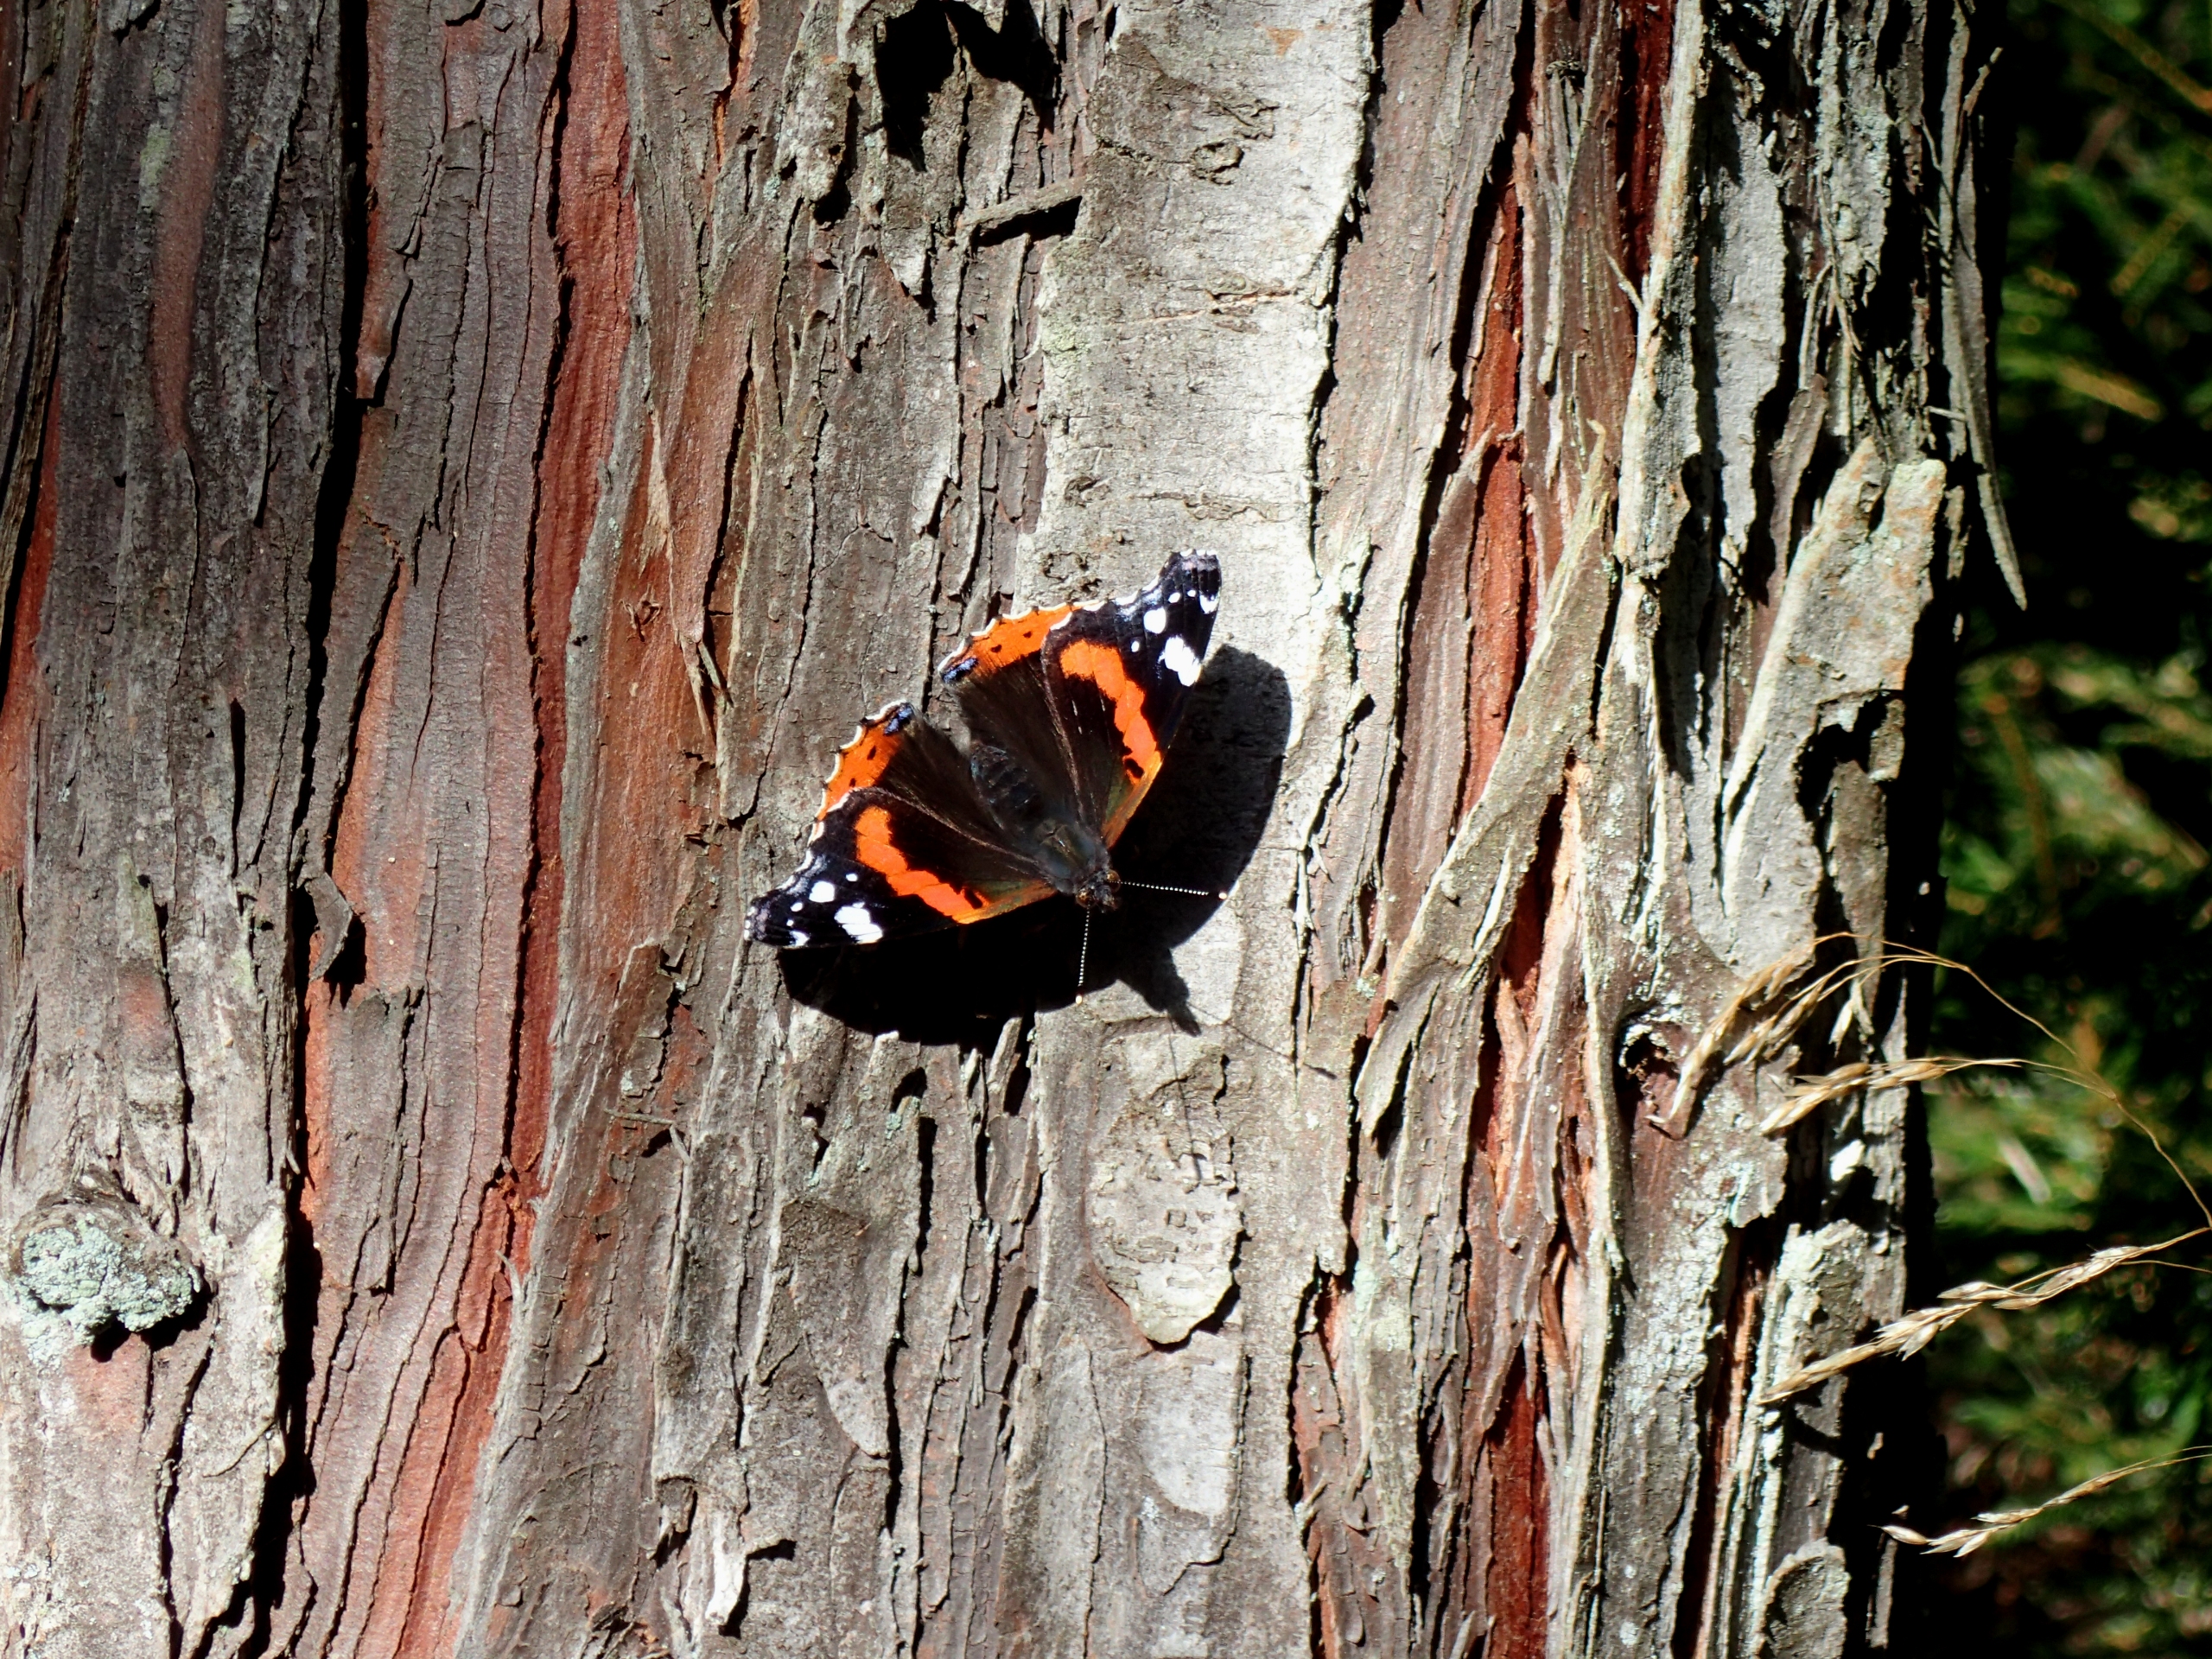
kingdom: Animalia
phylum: Arthropoda
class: Insecta
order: Lepidoptera
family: Nymphalidae
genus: Vanessa
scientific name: Vanessa atalanta
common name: Admiral
